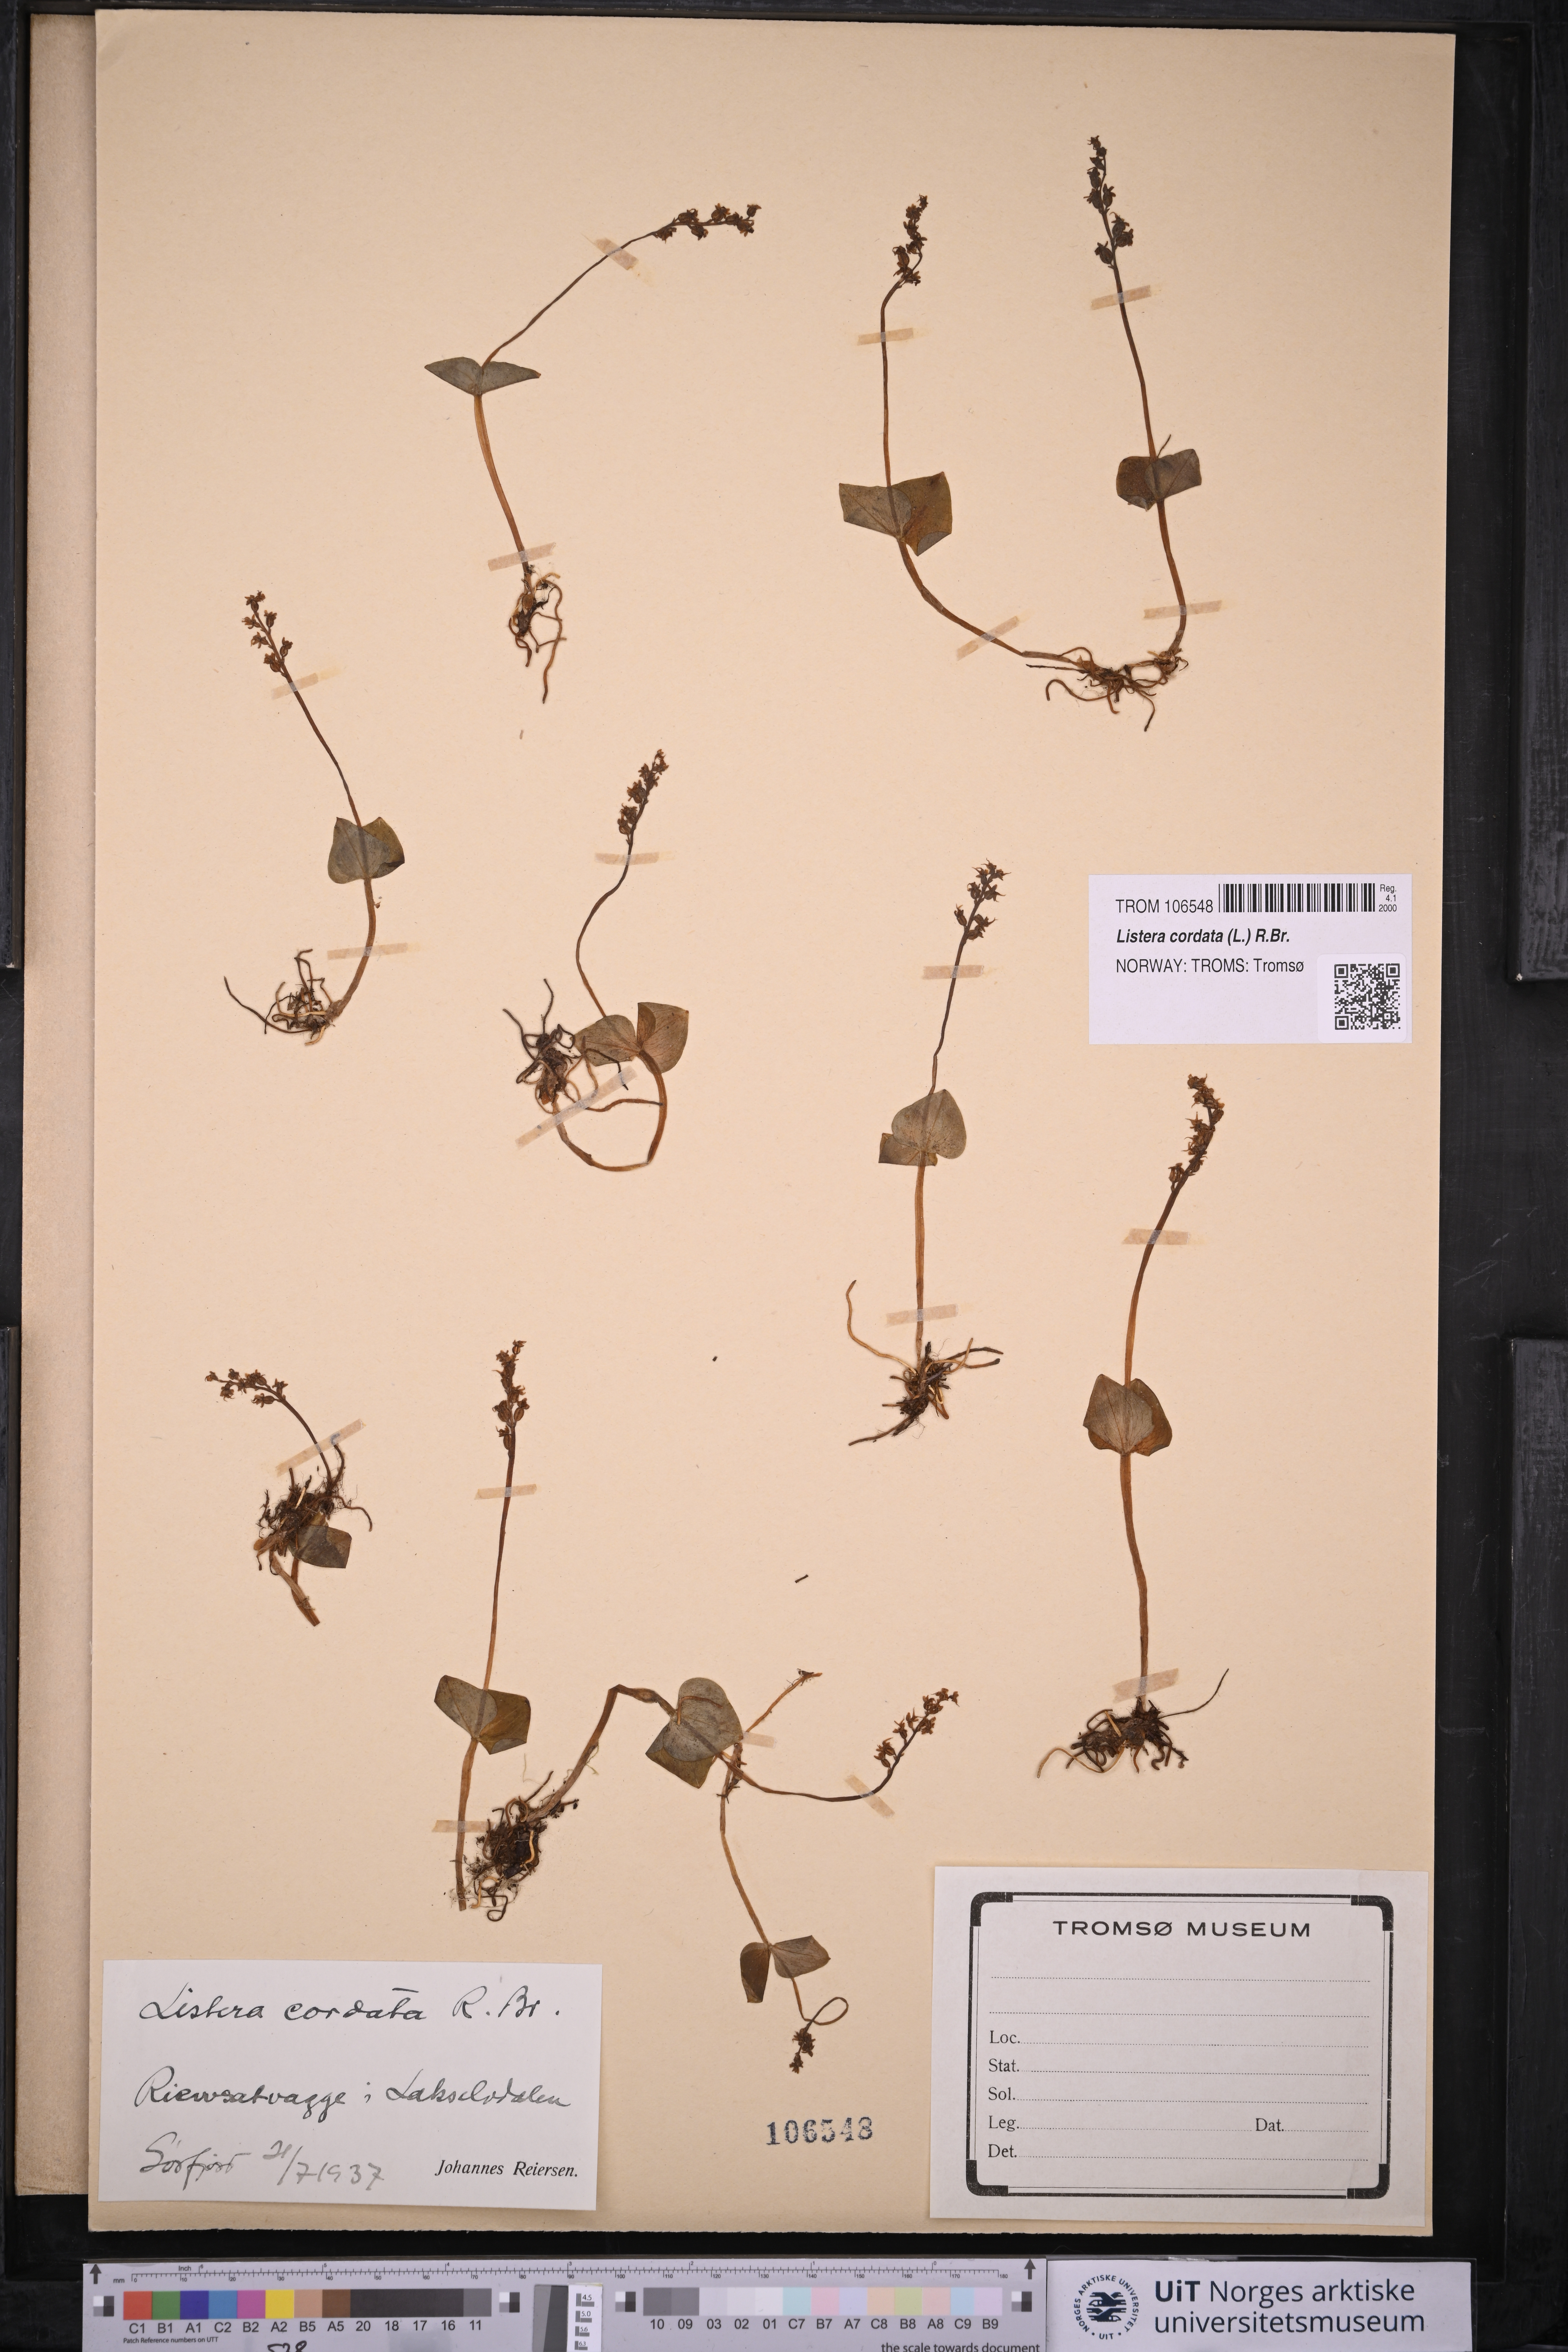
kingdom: Plantae
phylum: Tracheophyta
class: Liliopsida
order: Asparagales
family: Orchidaceae
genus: Neottia
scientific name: Neottia cordata
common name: Lesser twayblade
